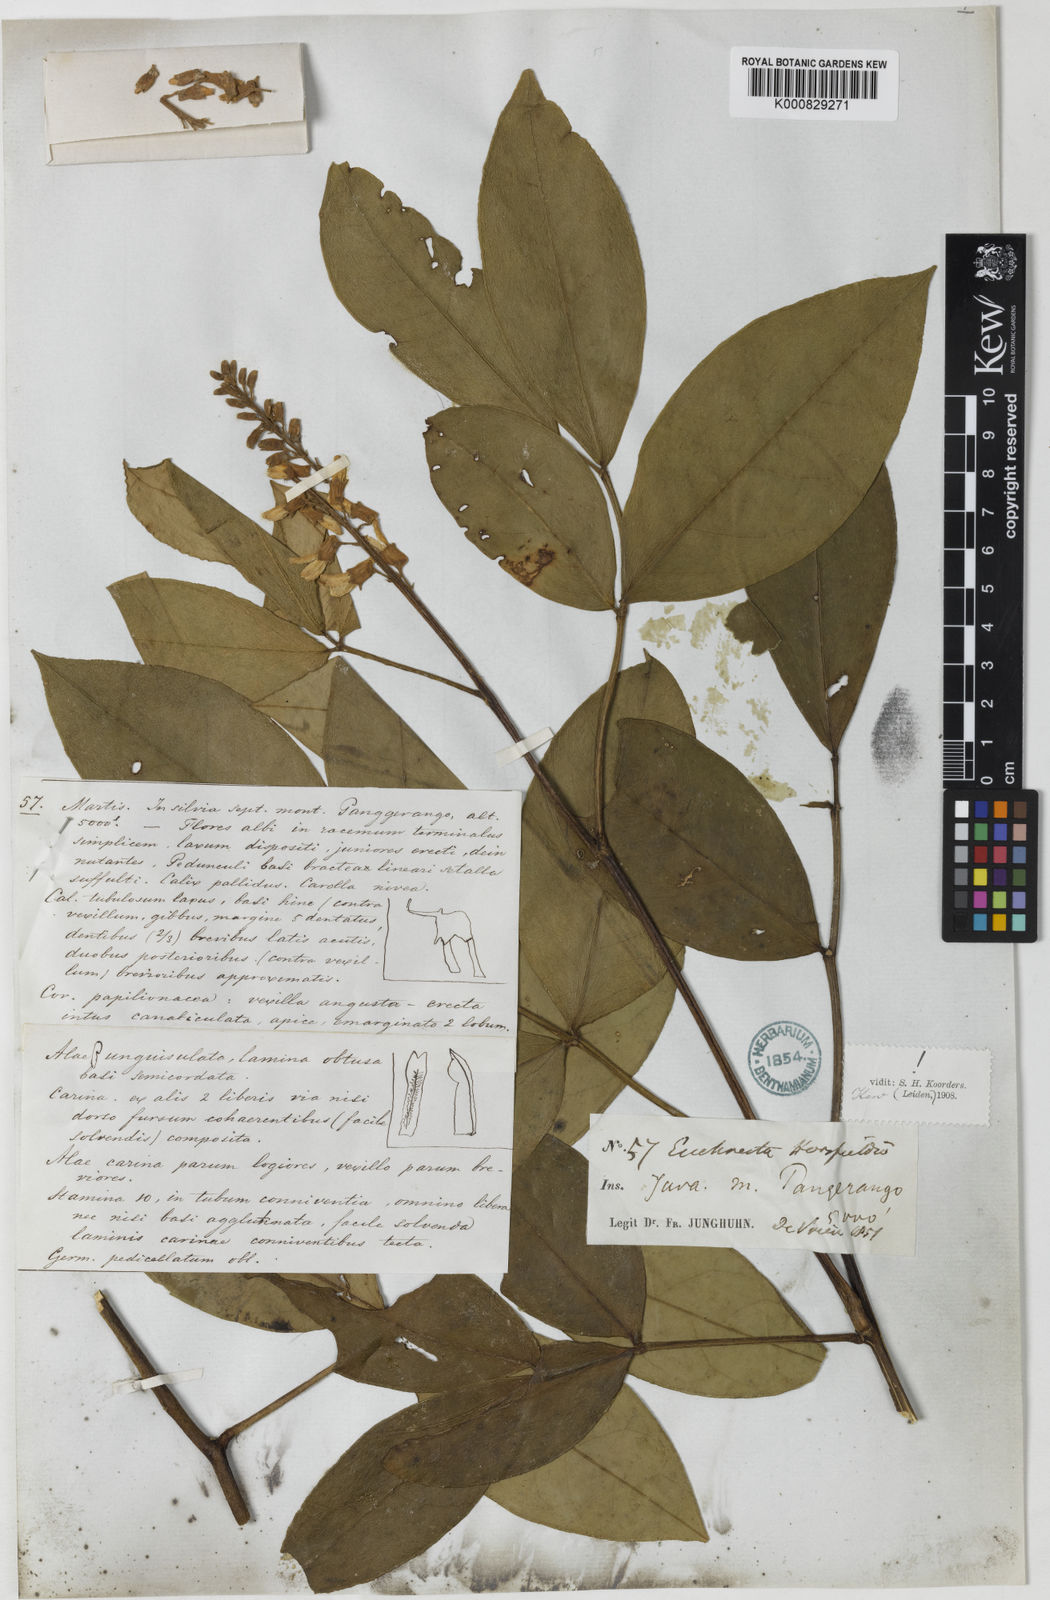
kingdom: Plantae
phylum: Tracheophyta
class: Magnoliopsida
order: Fabales
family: Fabaceae
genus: Euchresta
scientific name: Euchresta horsfieldii
